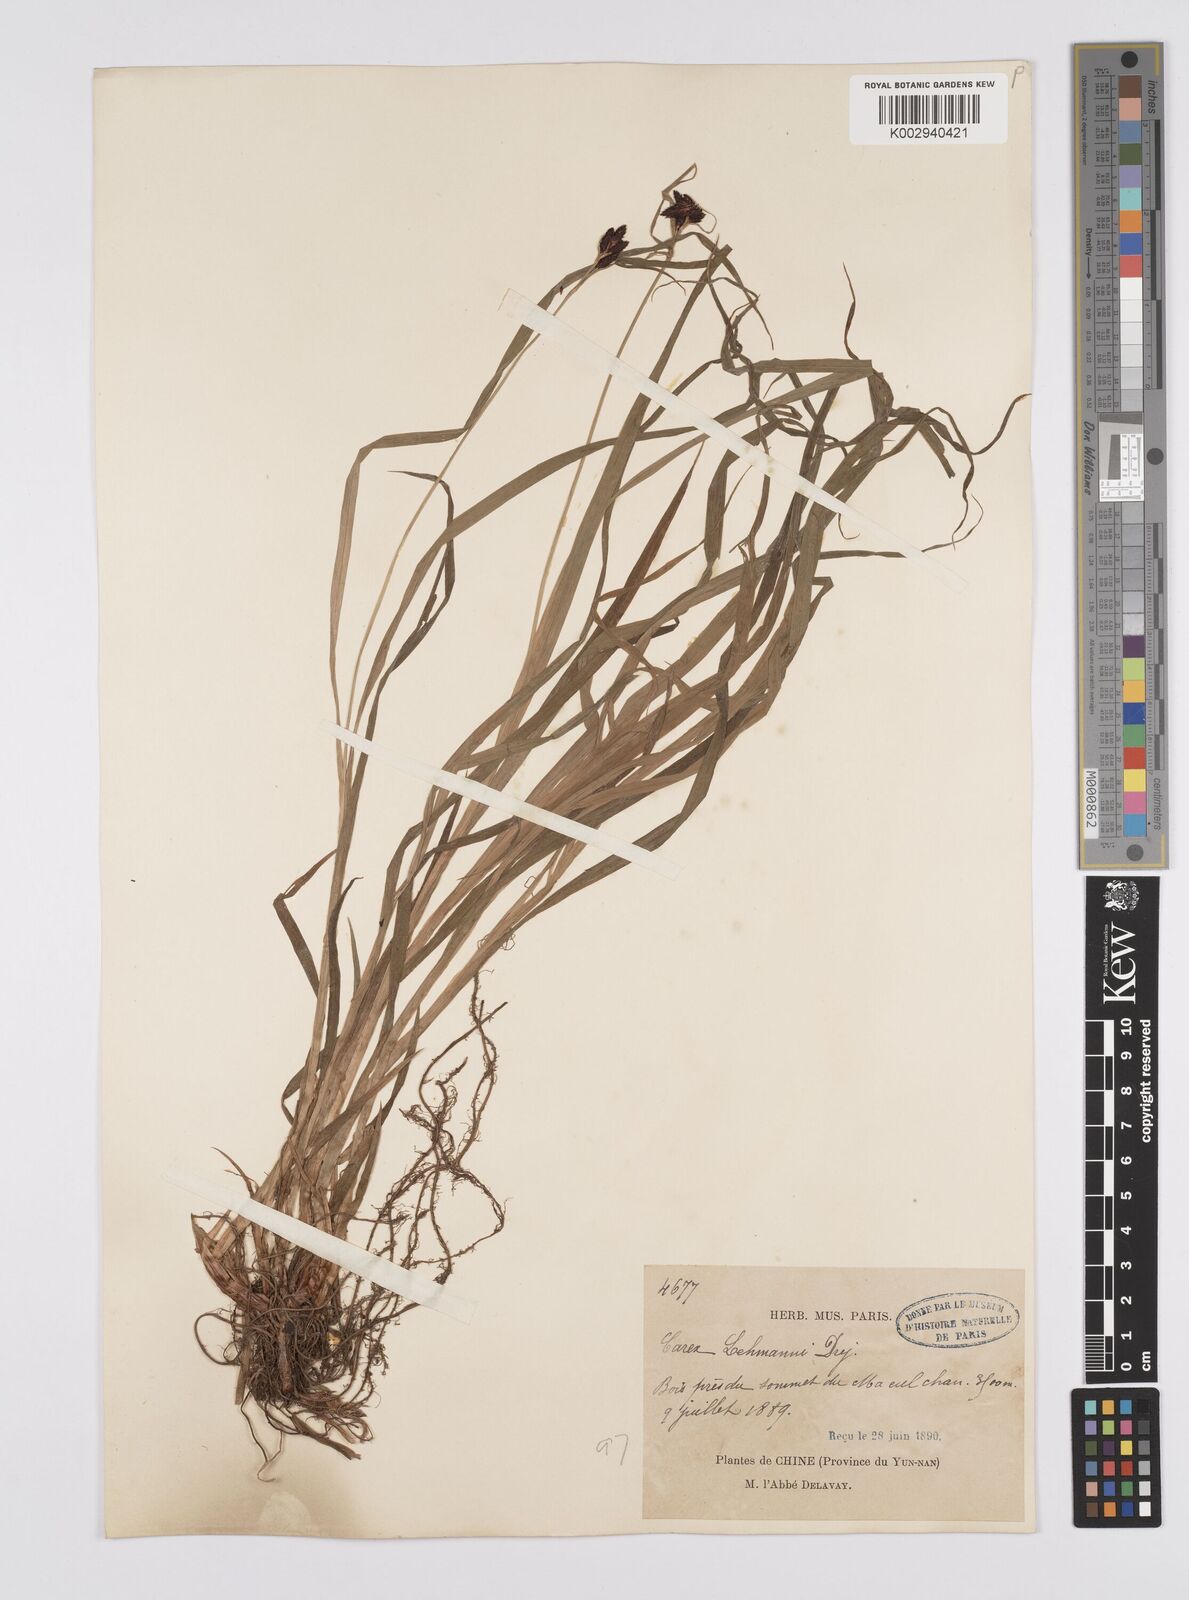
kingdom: Plantae
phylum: Tracheophyta
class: Liliopsida
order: Poales
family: Cyperaceae
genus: Carex
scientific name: Carex lehmannii
